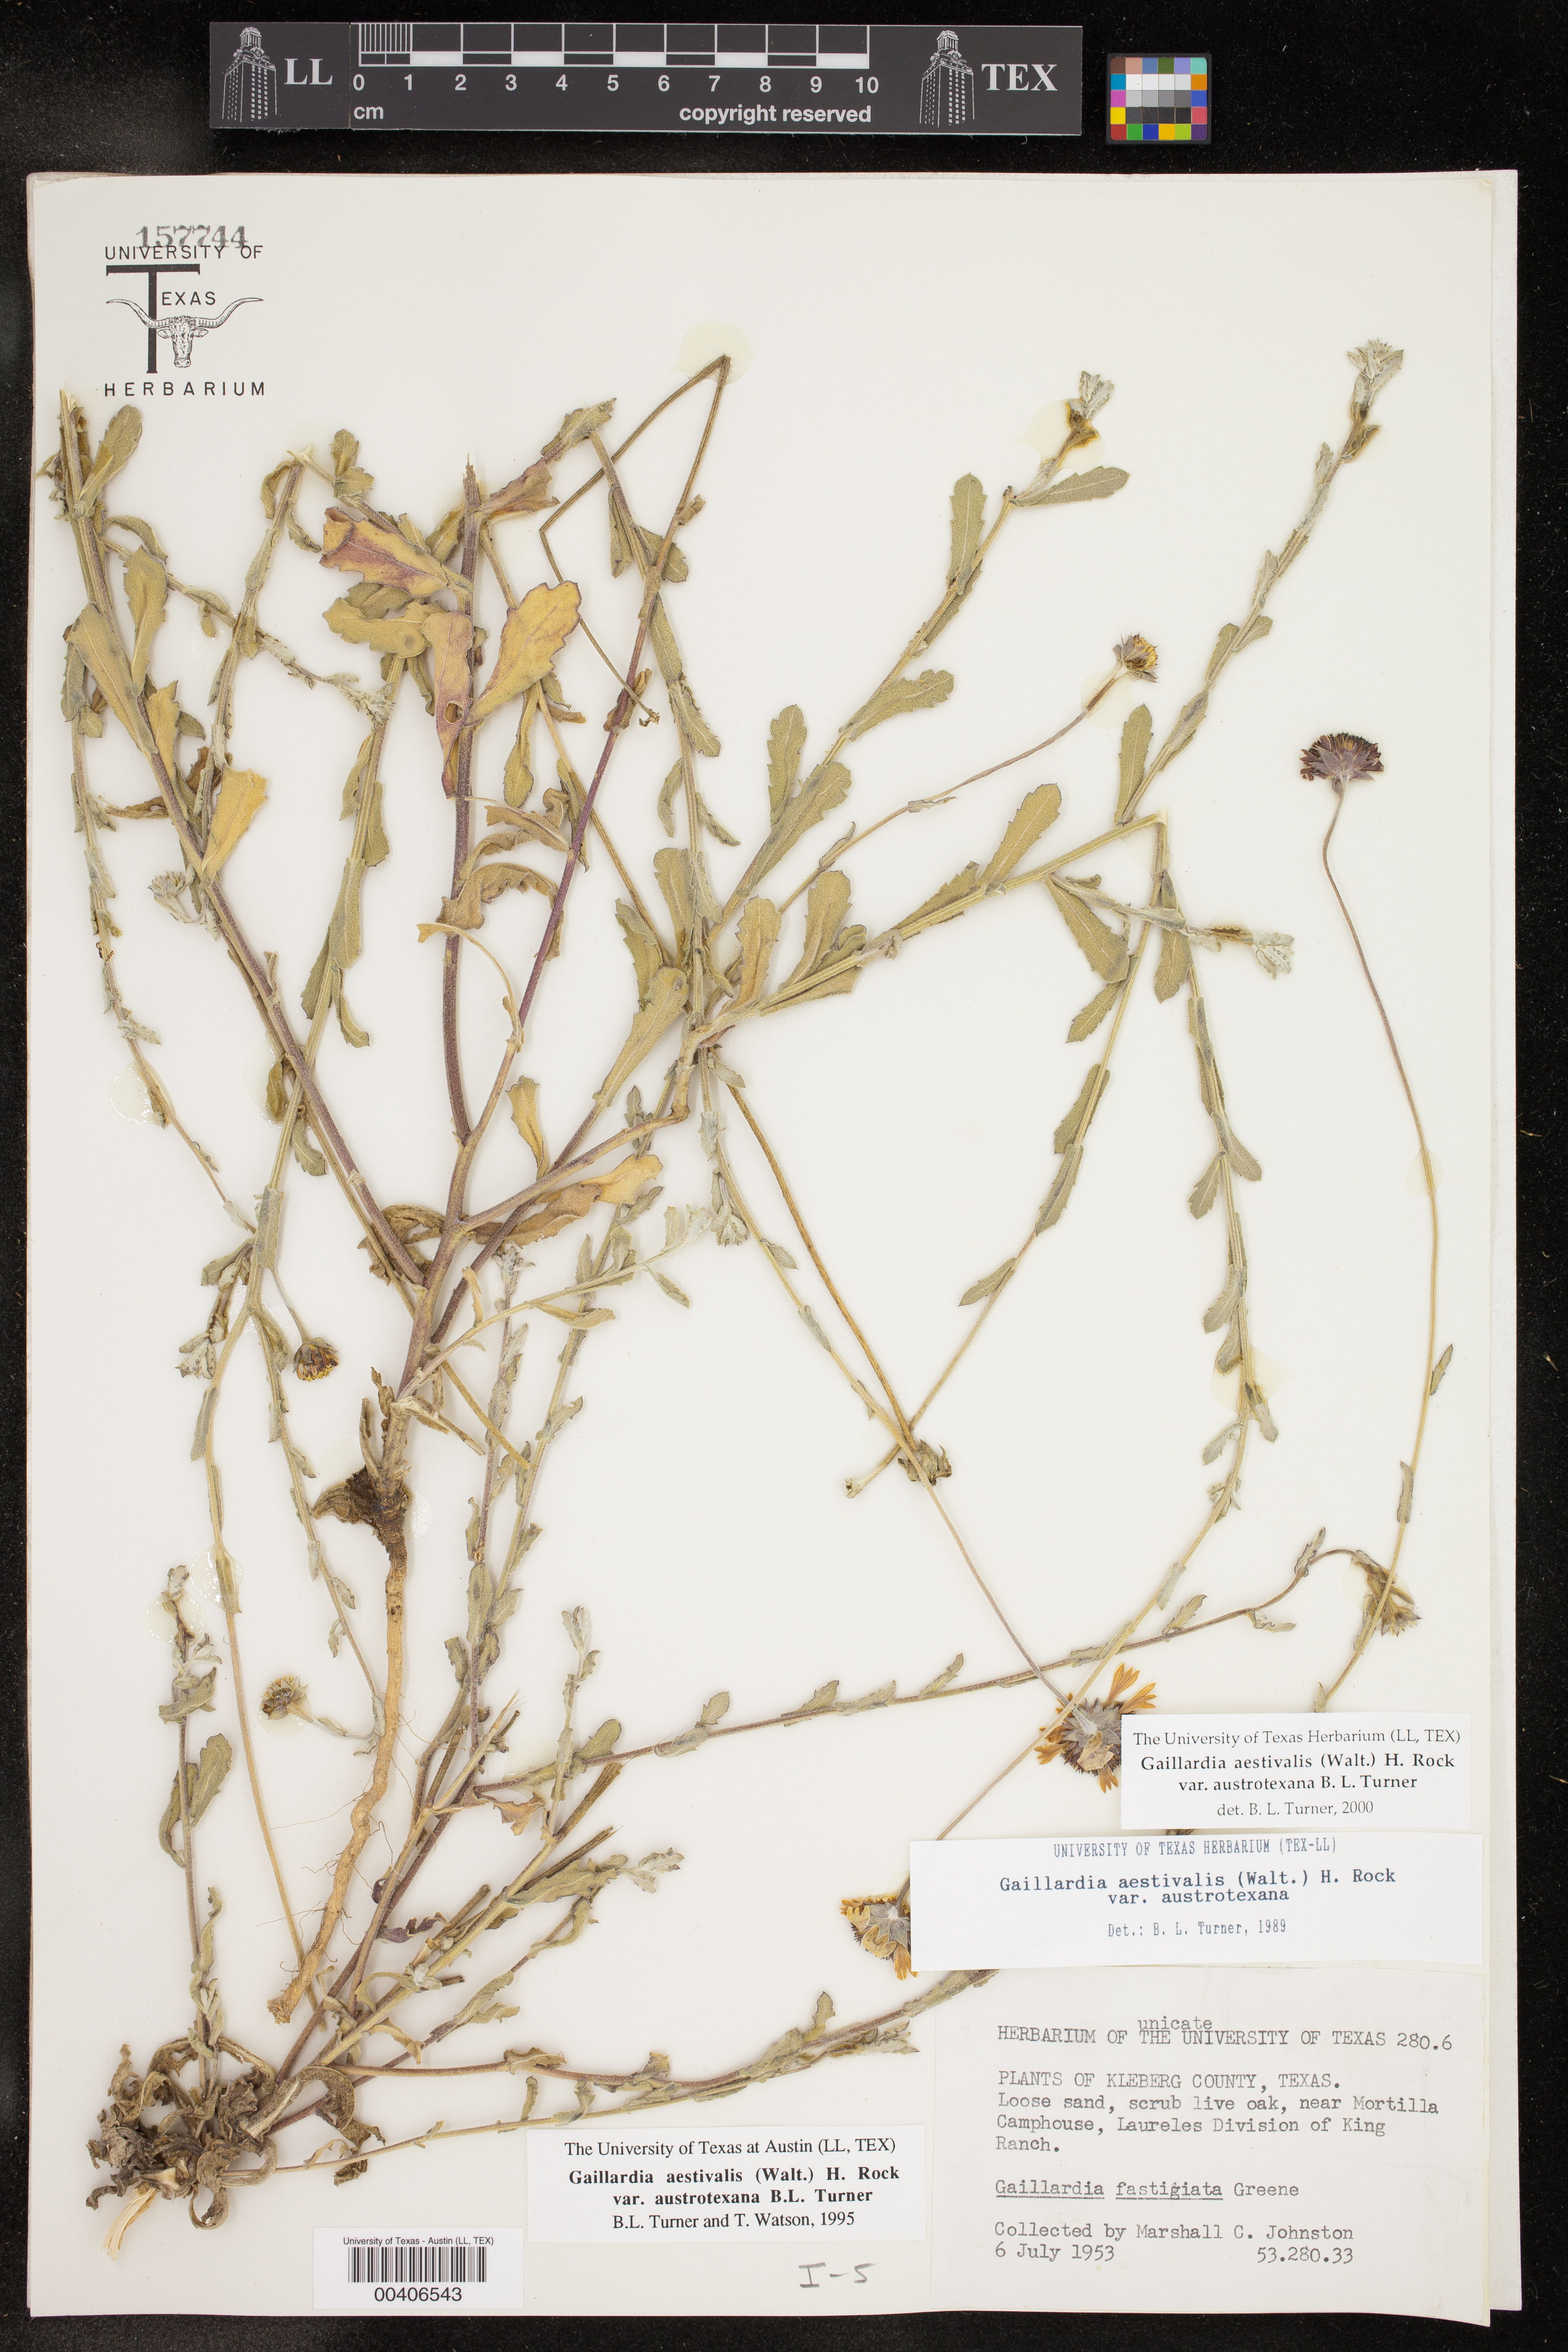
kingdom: Plantae
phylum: Tracheophyta
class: Magnoliopsida
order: Asterales
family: Asteraceae
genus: Gaillardia
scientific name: Gaillardia aestivalis
